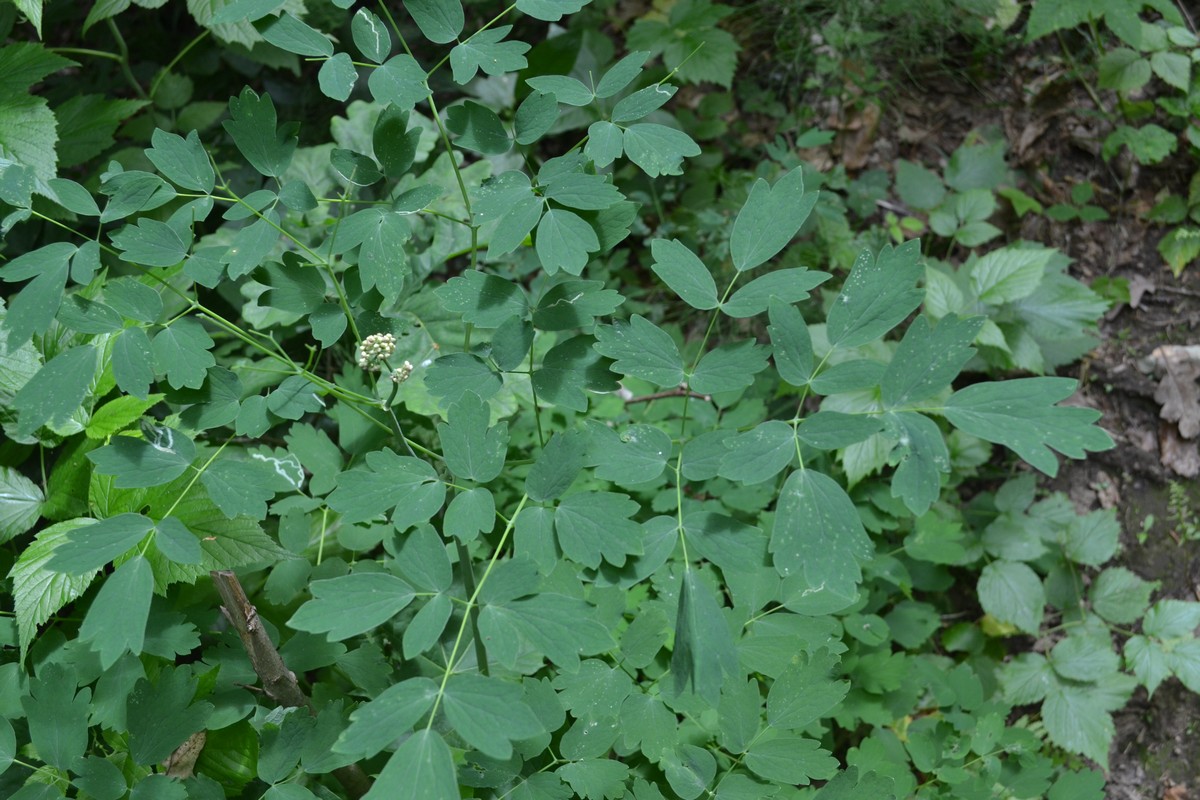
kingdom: Plantae
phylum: Tracheophyta
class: Magnoliopsida
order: Ranunculales
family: Ranunculaceae
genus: Thalictrum
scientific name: Thalictrum aquilegiifolium
